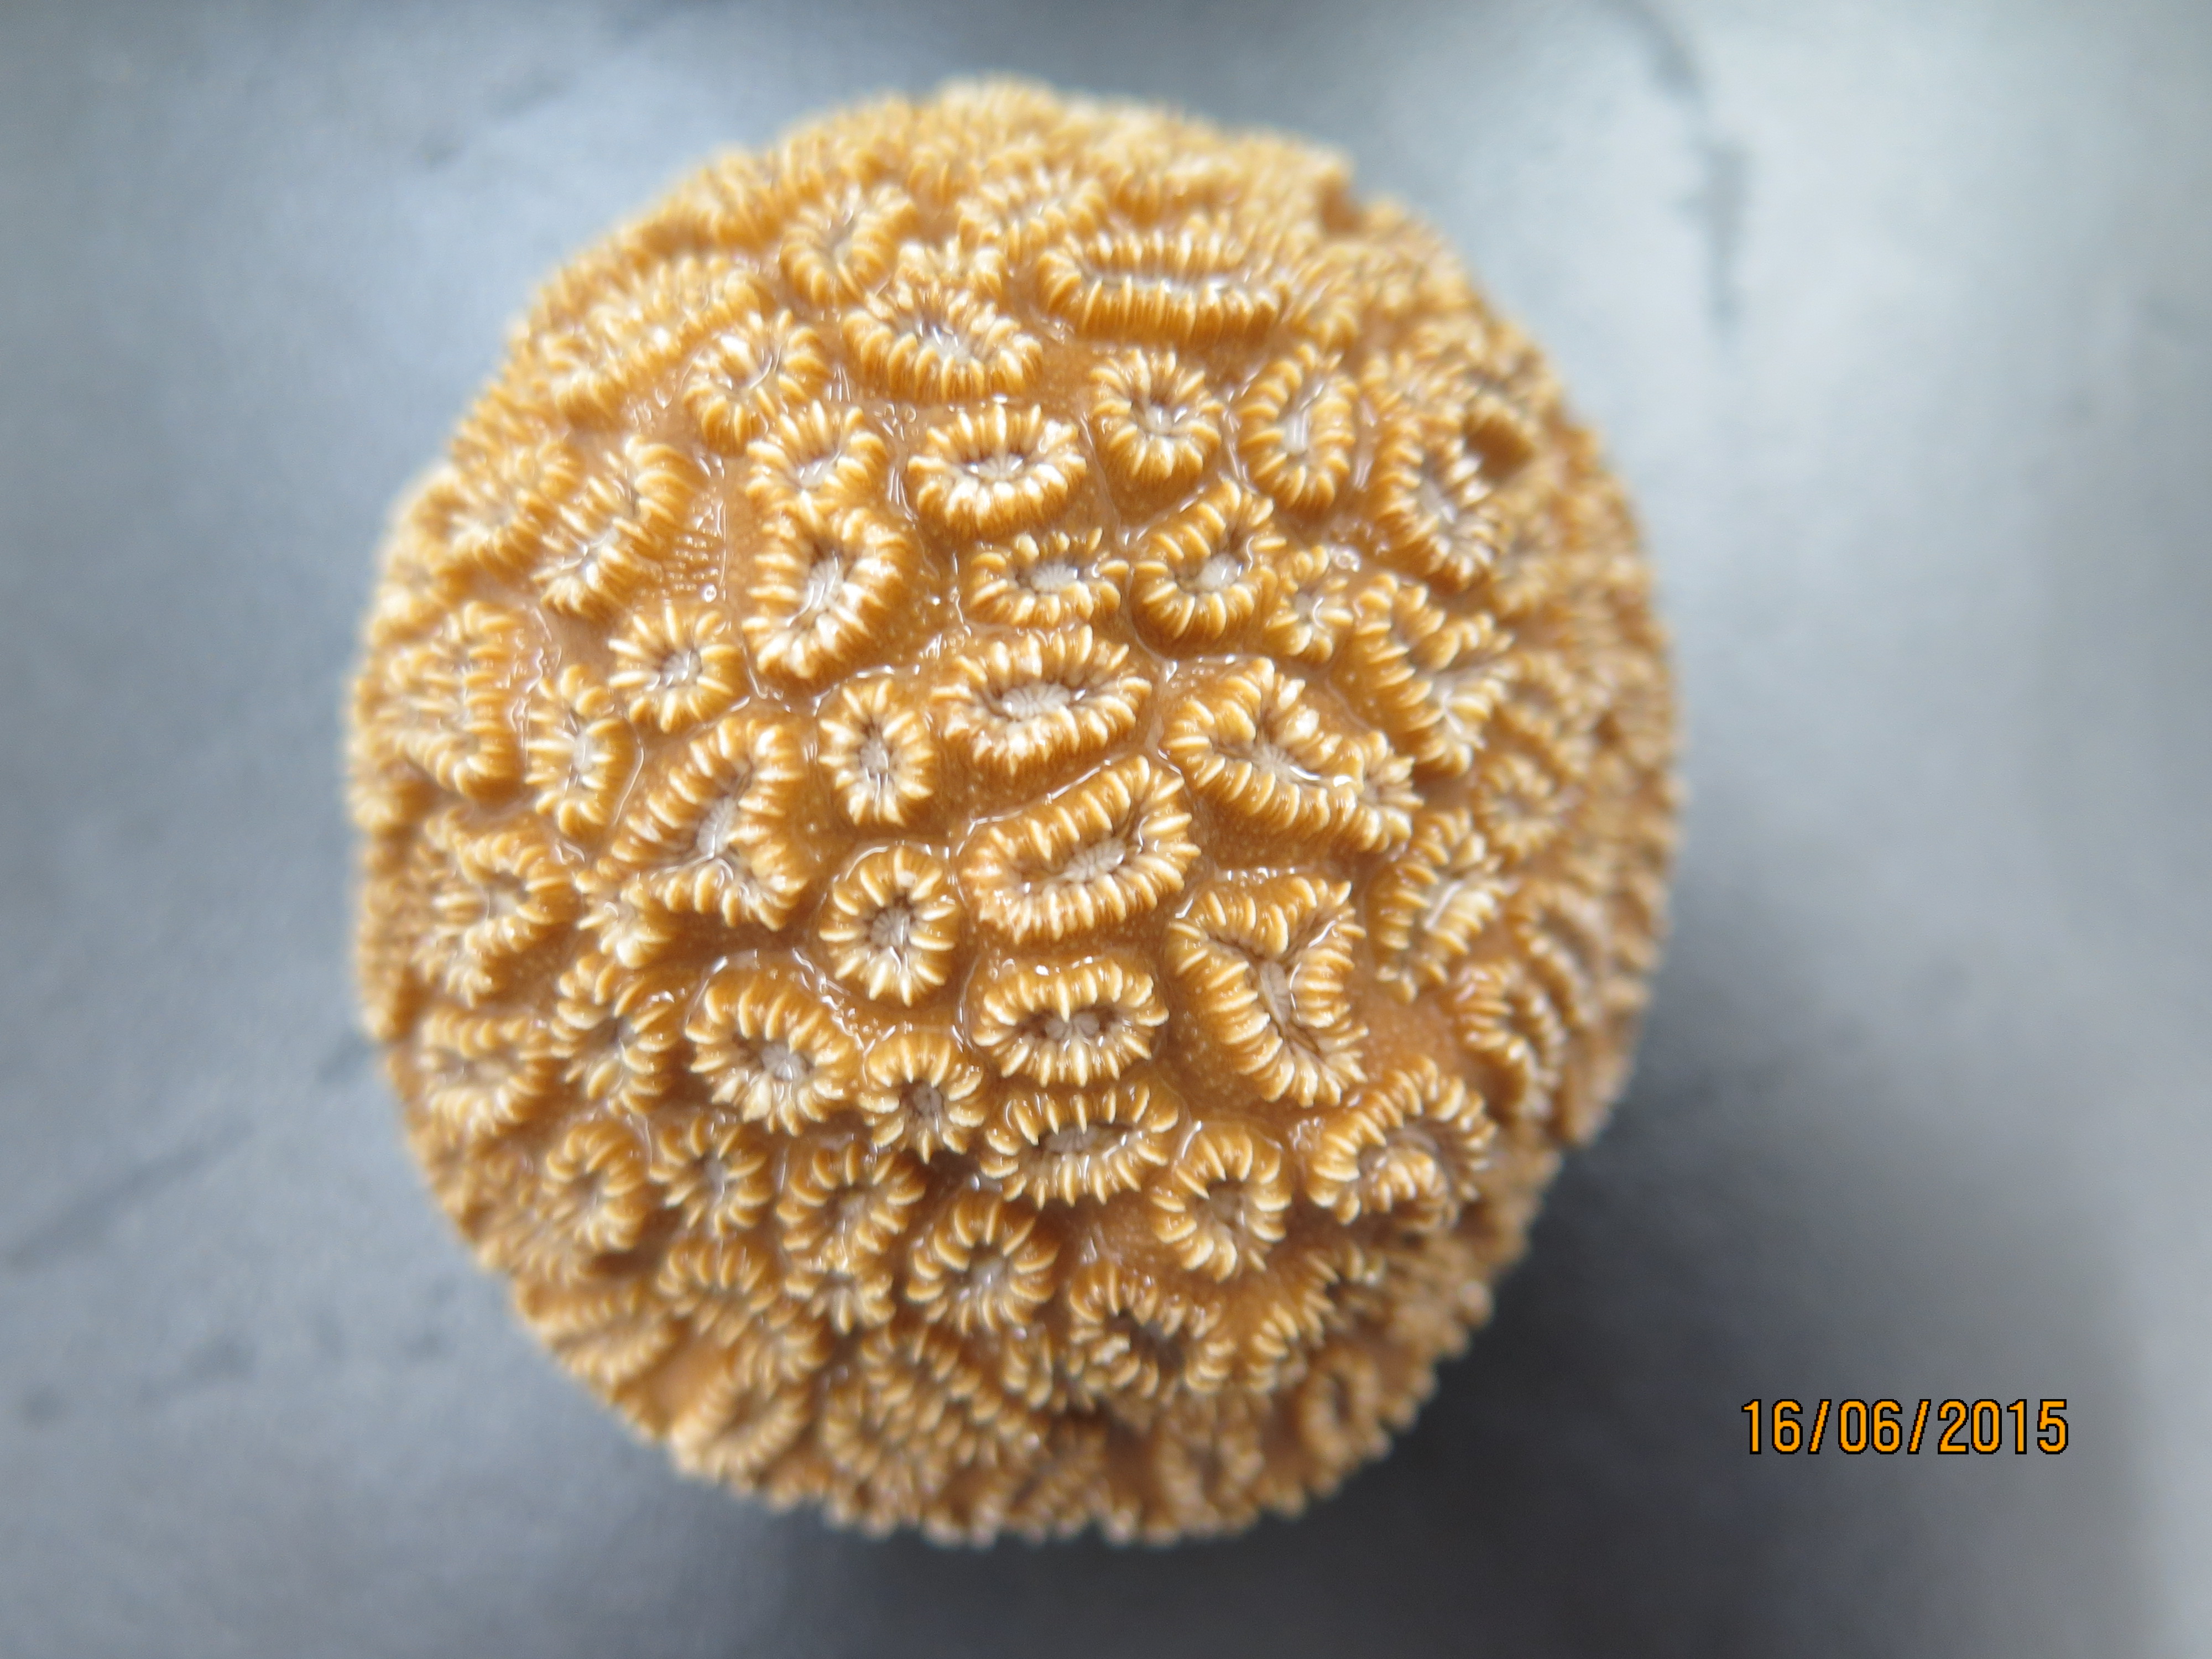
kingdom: Animalia
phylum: Cnidaria
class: Anthozoa
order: Scleractinia
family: Meandrinidae
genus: Dichocoenia
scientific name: Dichocoenia stokesii
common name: Pineapple coral
